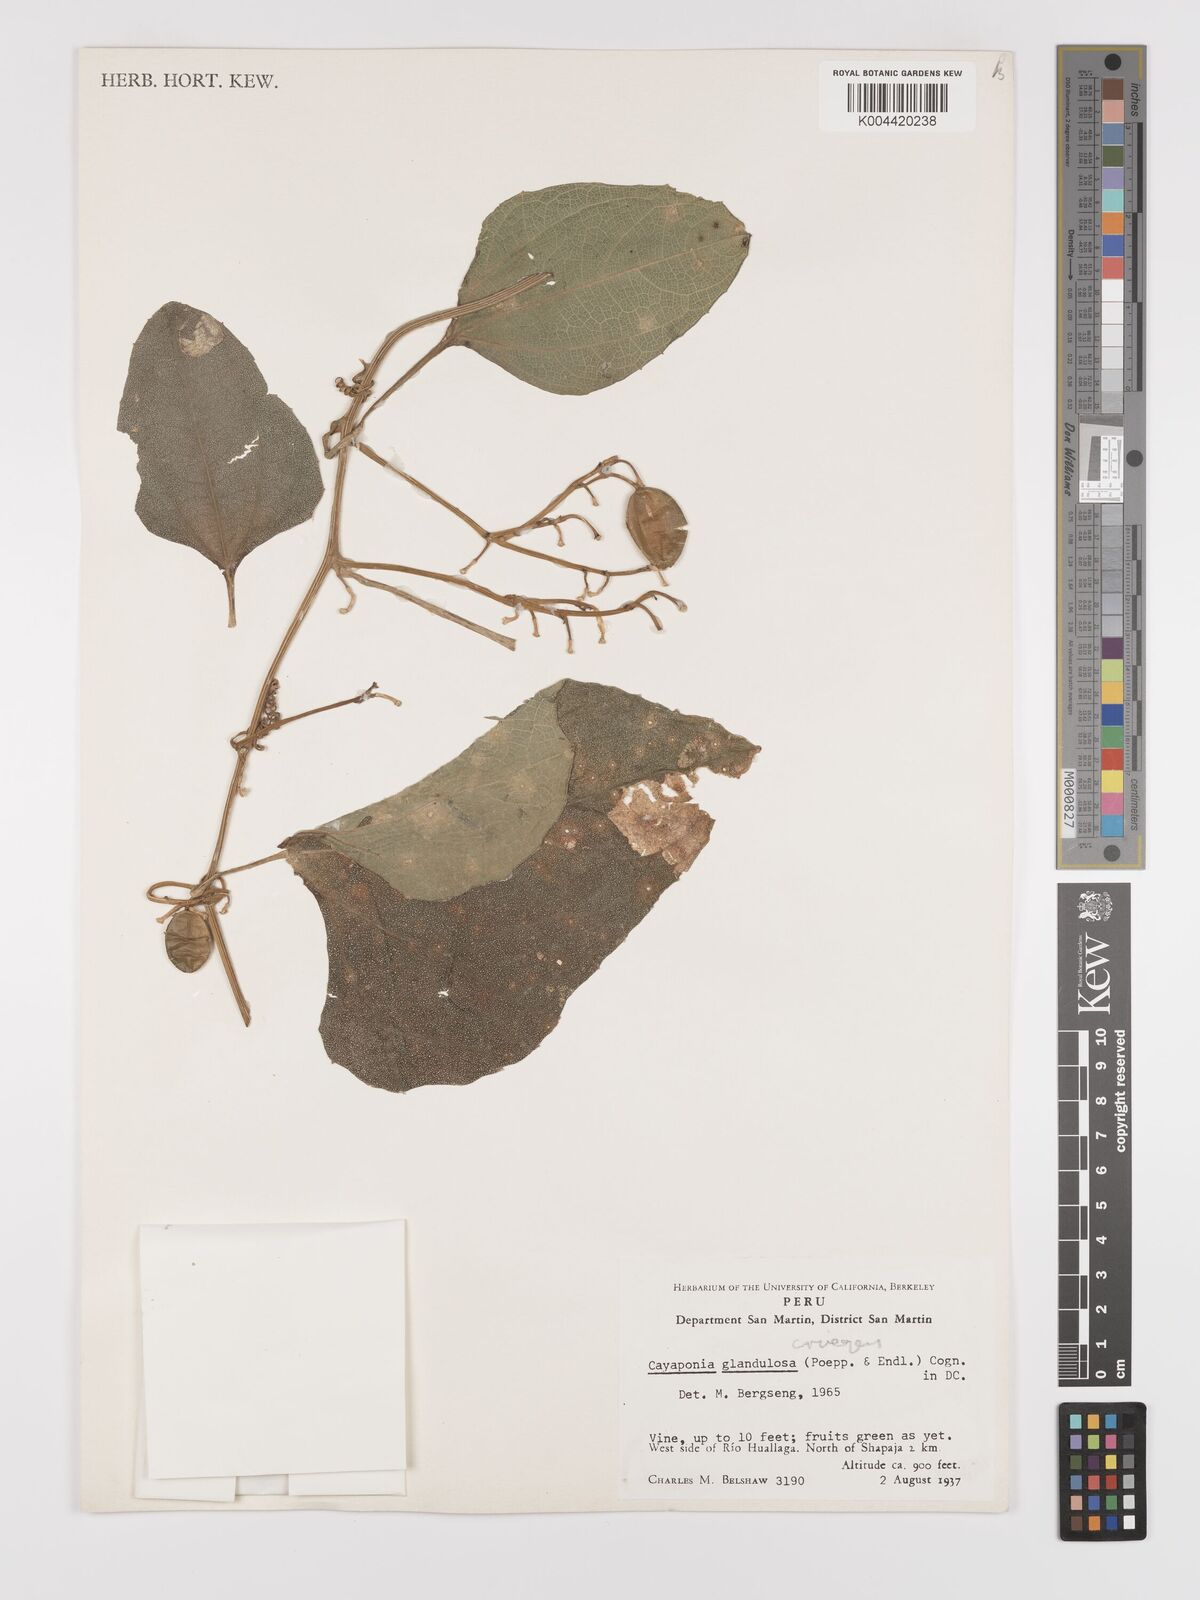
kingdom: Plantae
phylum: Tracheophyta
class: Magnoliopsida
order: Cucurbitales
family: Cucurbitaceae
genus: Cayaponia
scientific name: Cayaponia cruegeri
